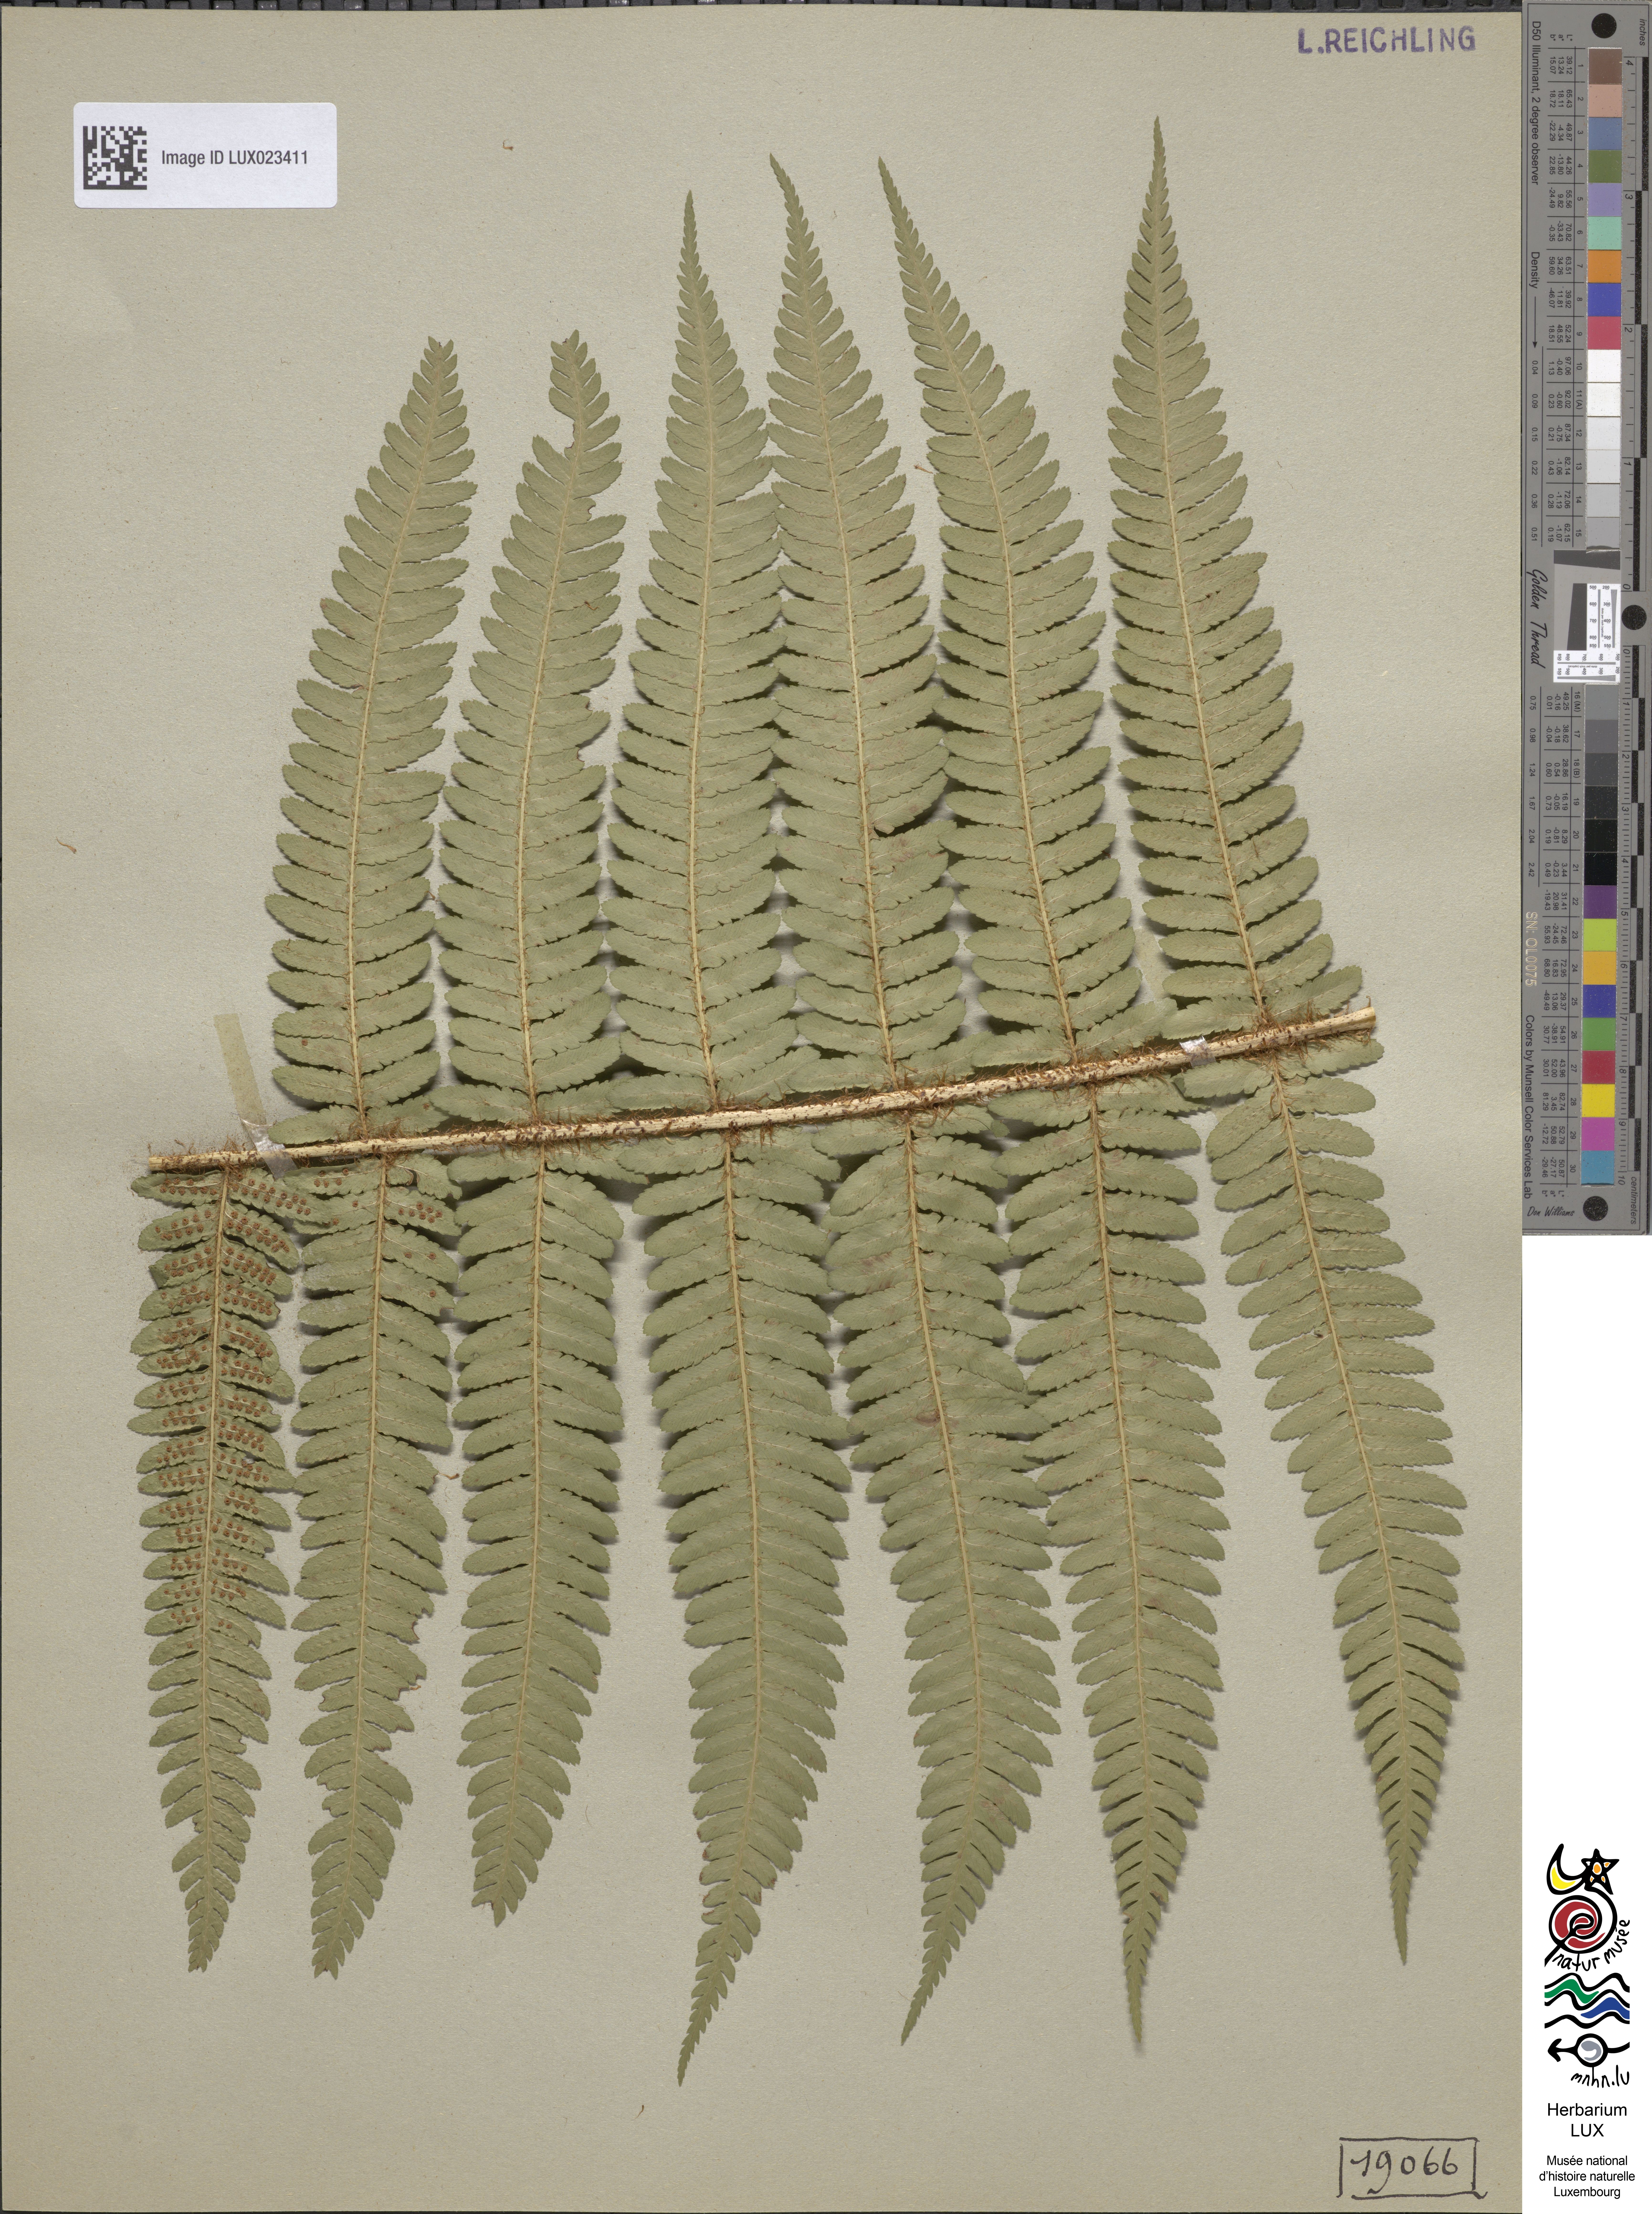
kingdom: Plantae
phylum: Tracheophyta
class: Polypodiopsida
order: Polypodiales
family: Dryopteridaceae
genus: Dryopteris
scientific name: Dryopteris borreri
